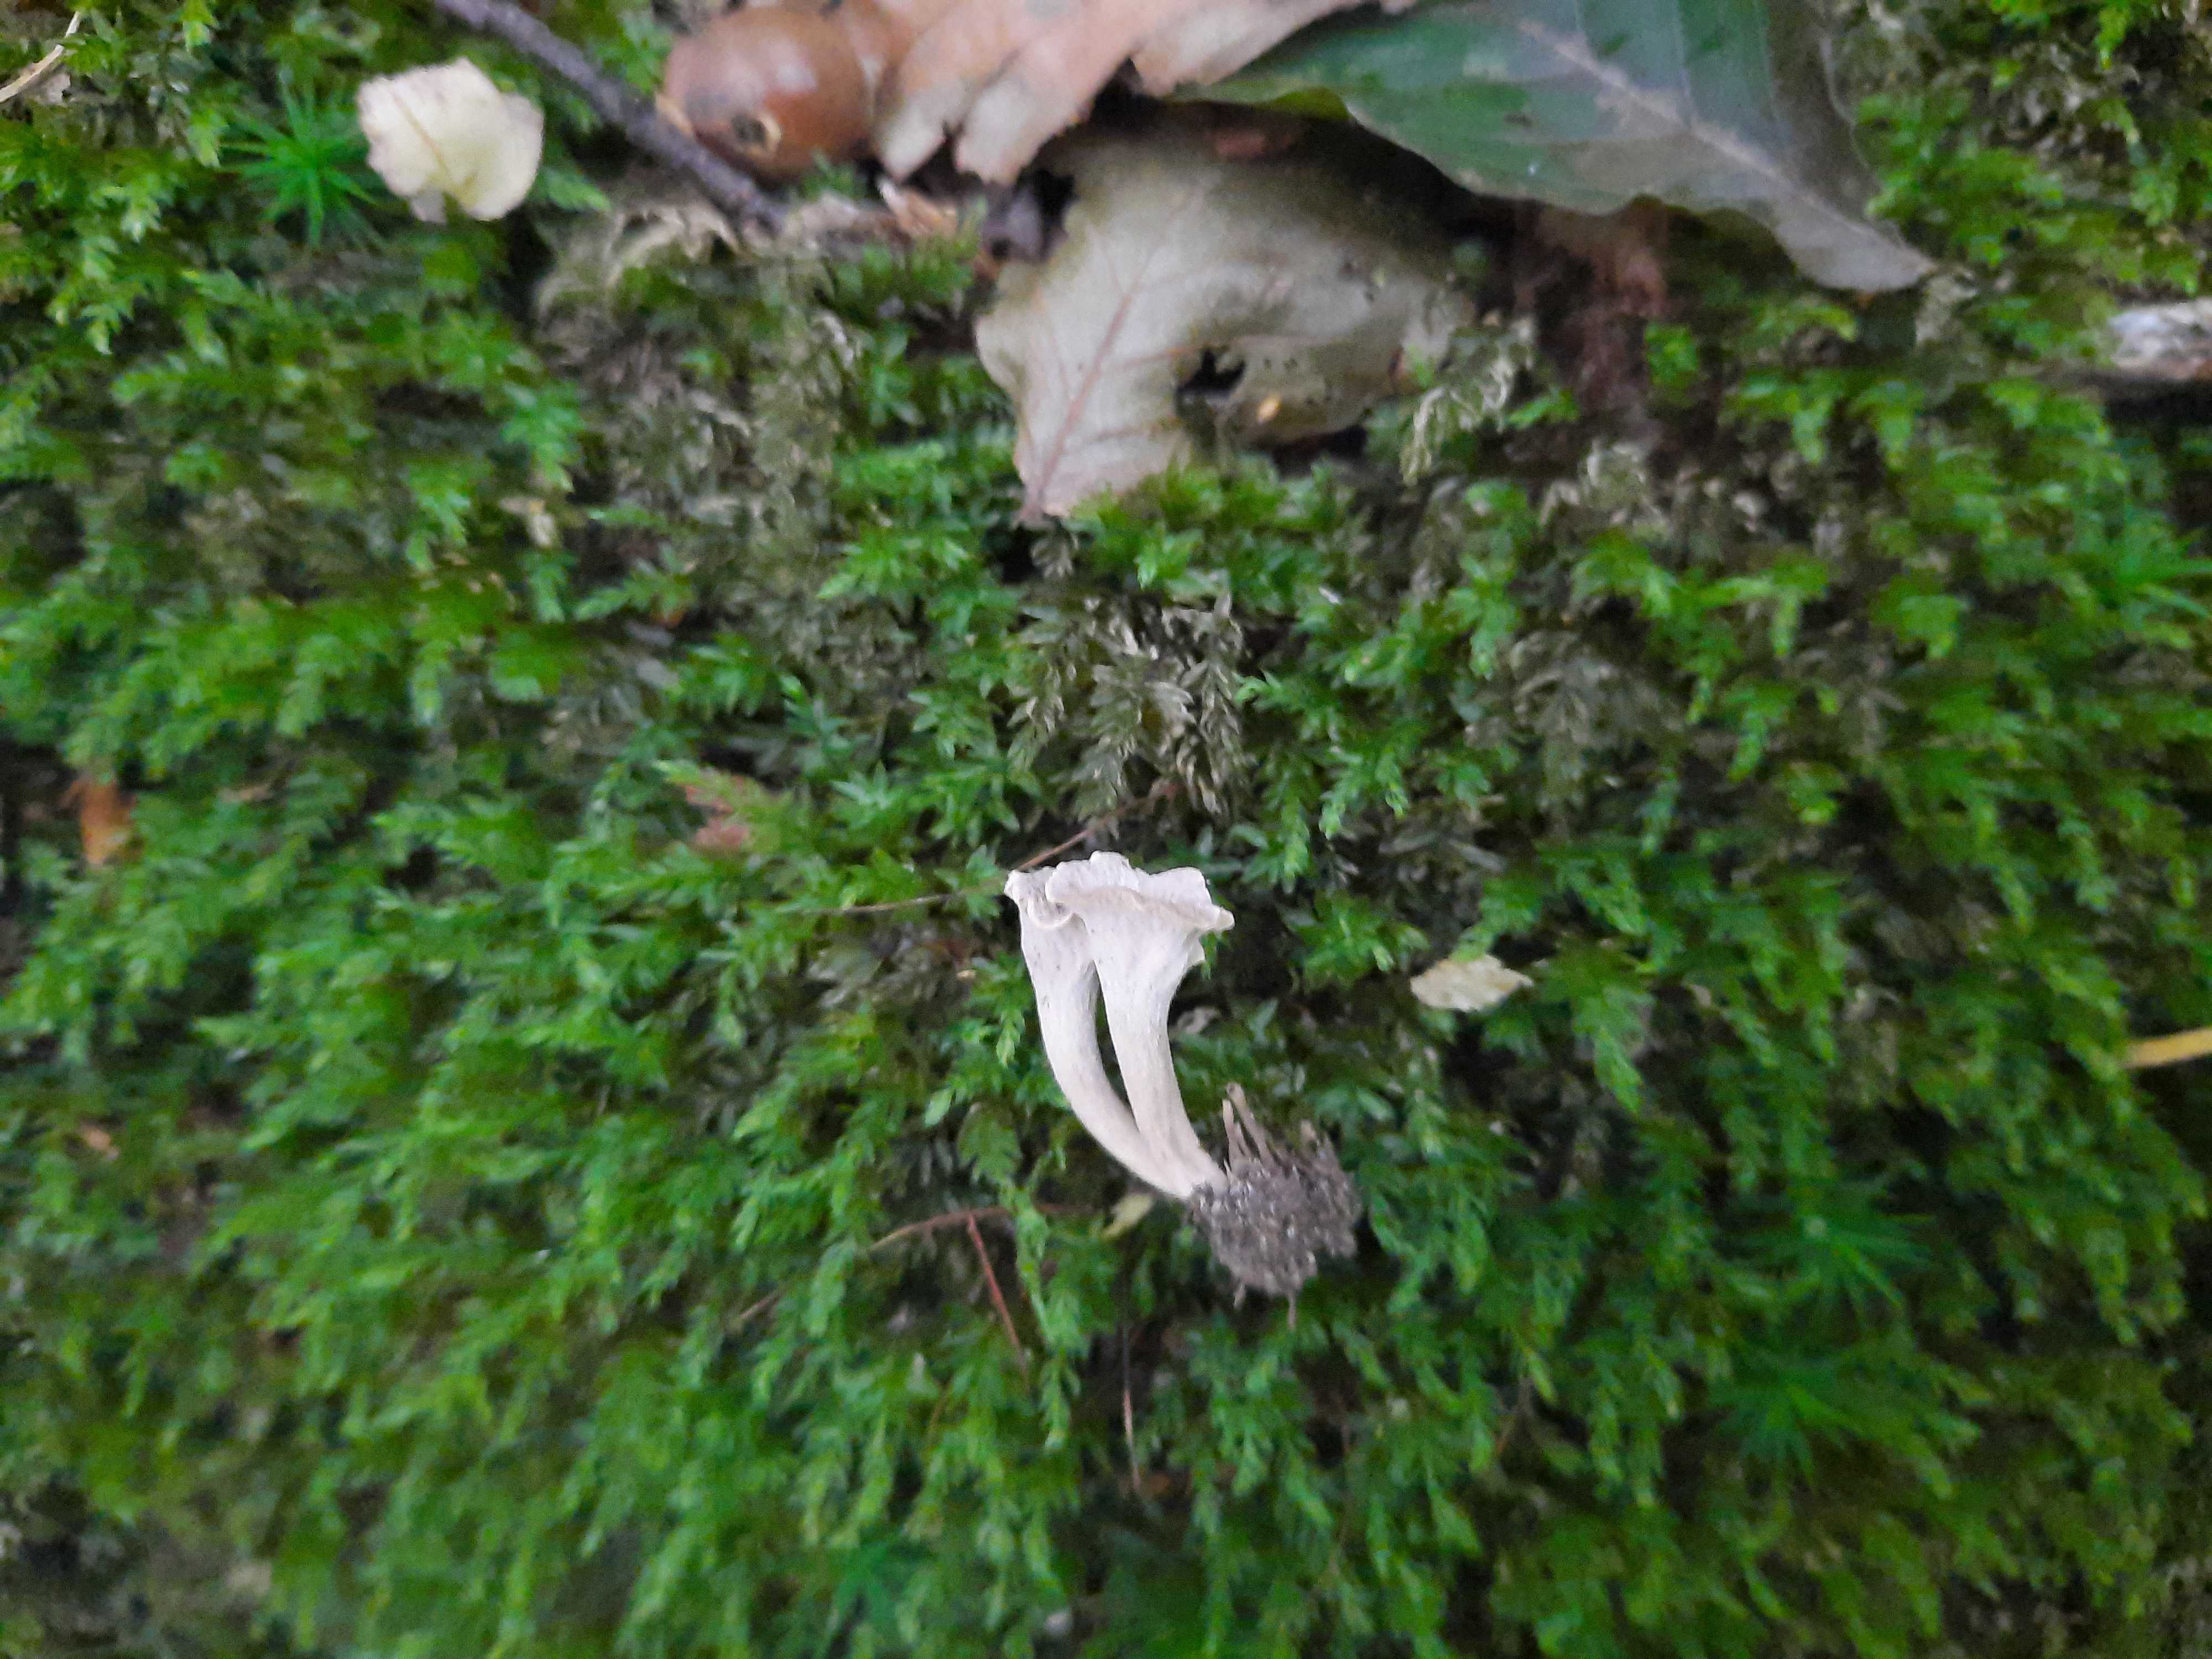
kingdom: Fungi
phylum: Basidiomycota
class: Agaricomycetes
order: Cantharellales
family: Hydnaceae
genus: Craterellus
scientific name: Craterellus undulatus
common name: liden kantarel
